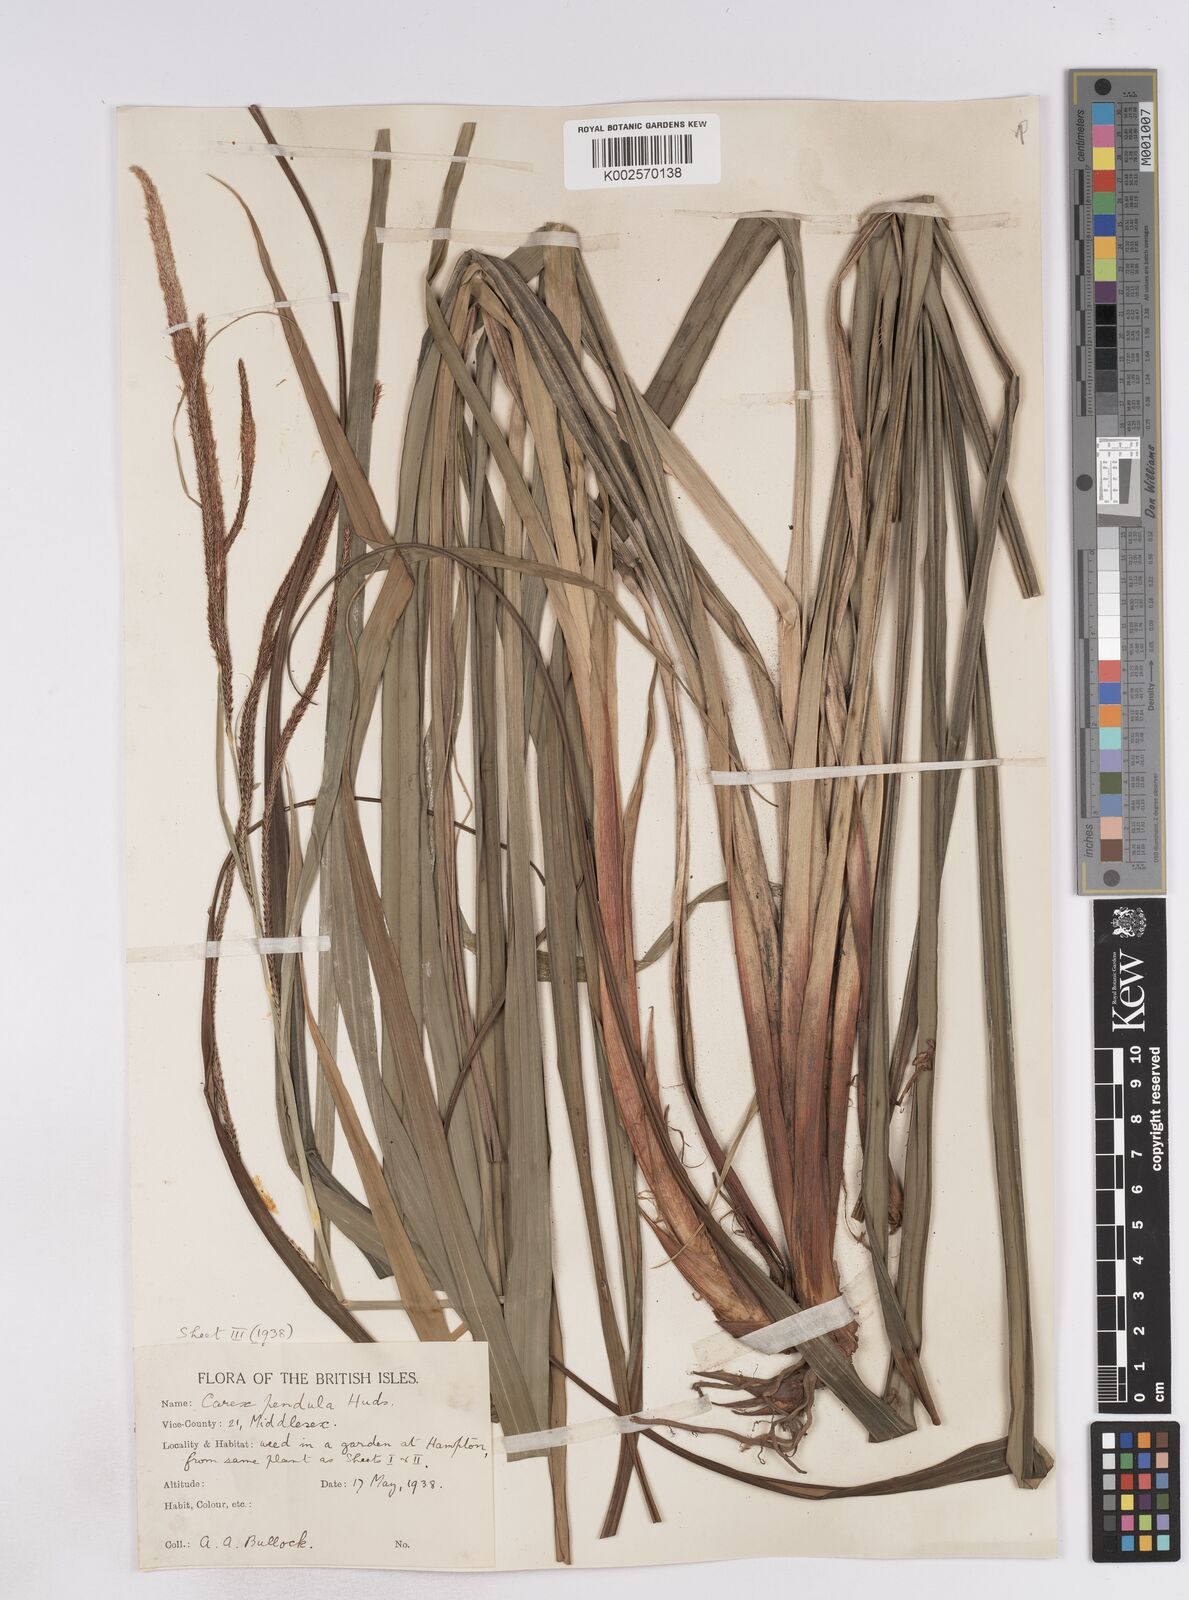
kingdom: Plantae
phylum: Tracheophyta
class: Liliopsida
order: Poales
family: Cyperaceae
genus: Carex
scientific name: Carex pendula
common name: Pendulous sedge
